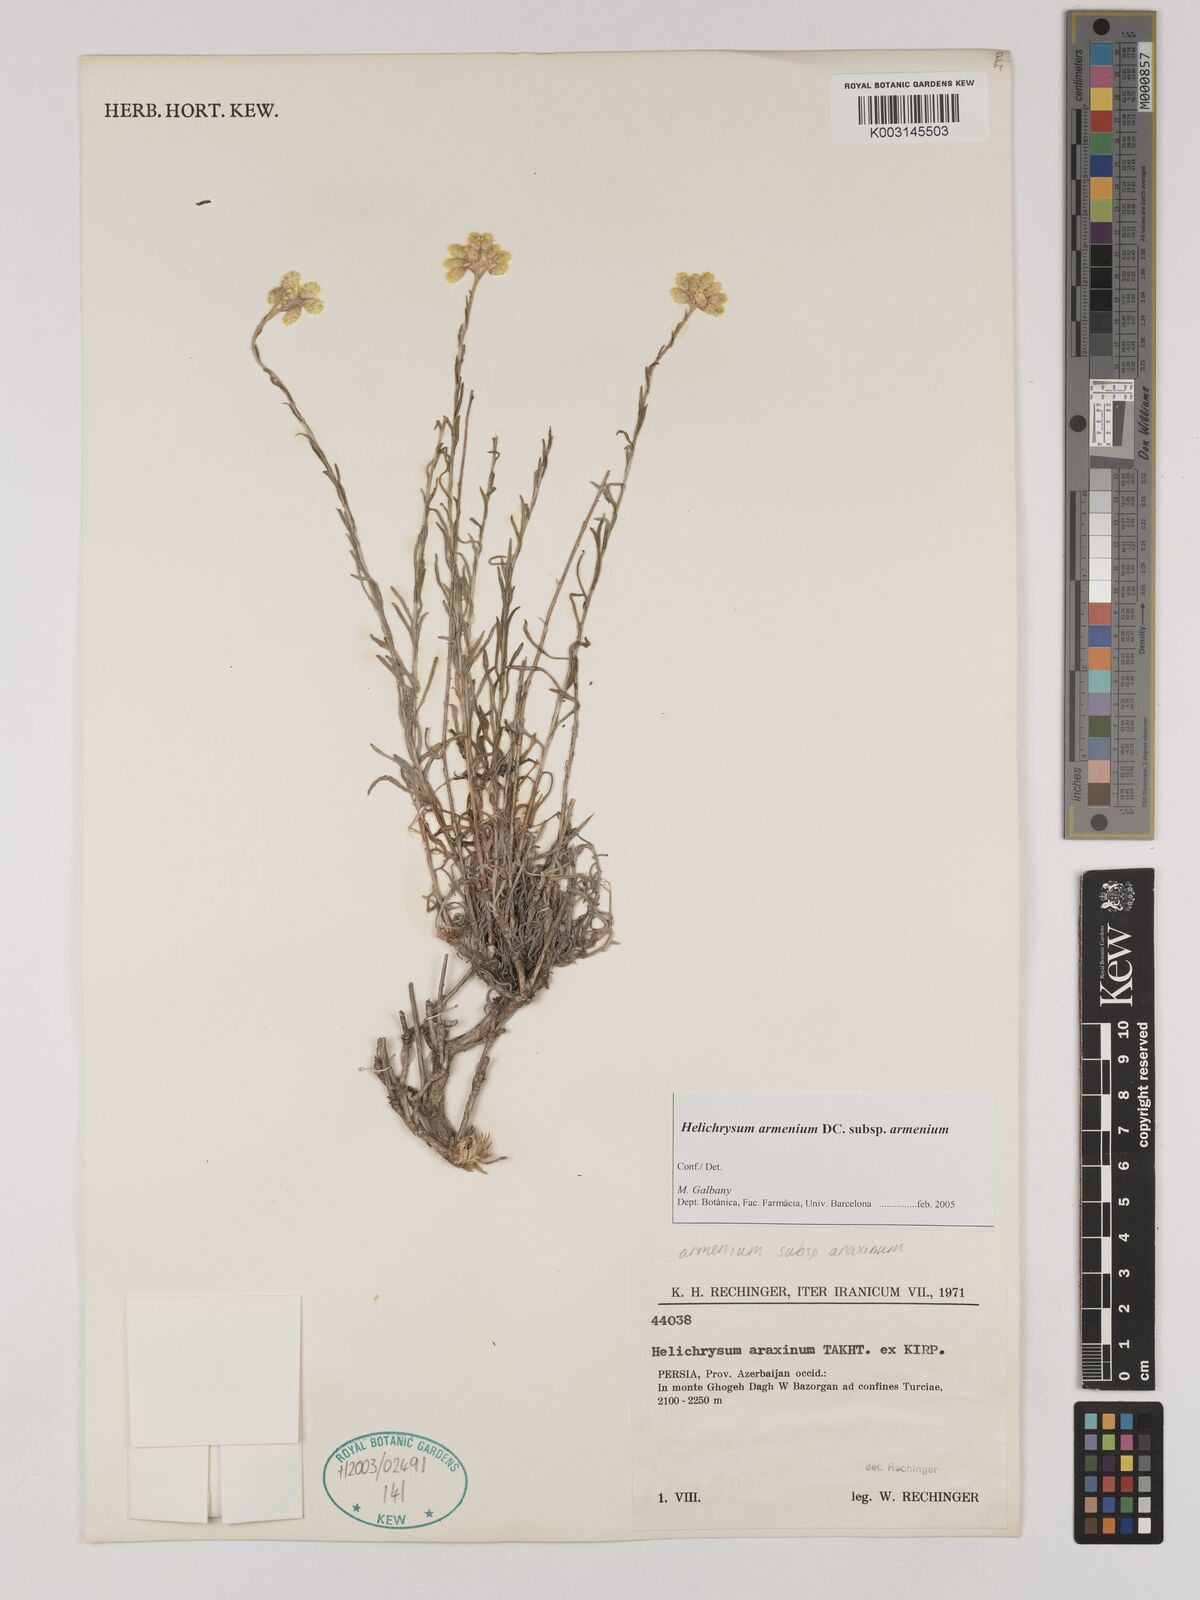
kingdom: Plantae
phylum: Tracheophyta
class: Magnoliopsida
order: Asterales
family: Asteraceae
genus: Helichrysum
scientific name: Helichrysum armenium
